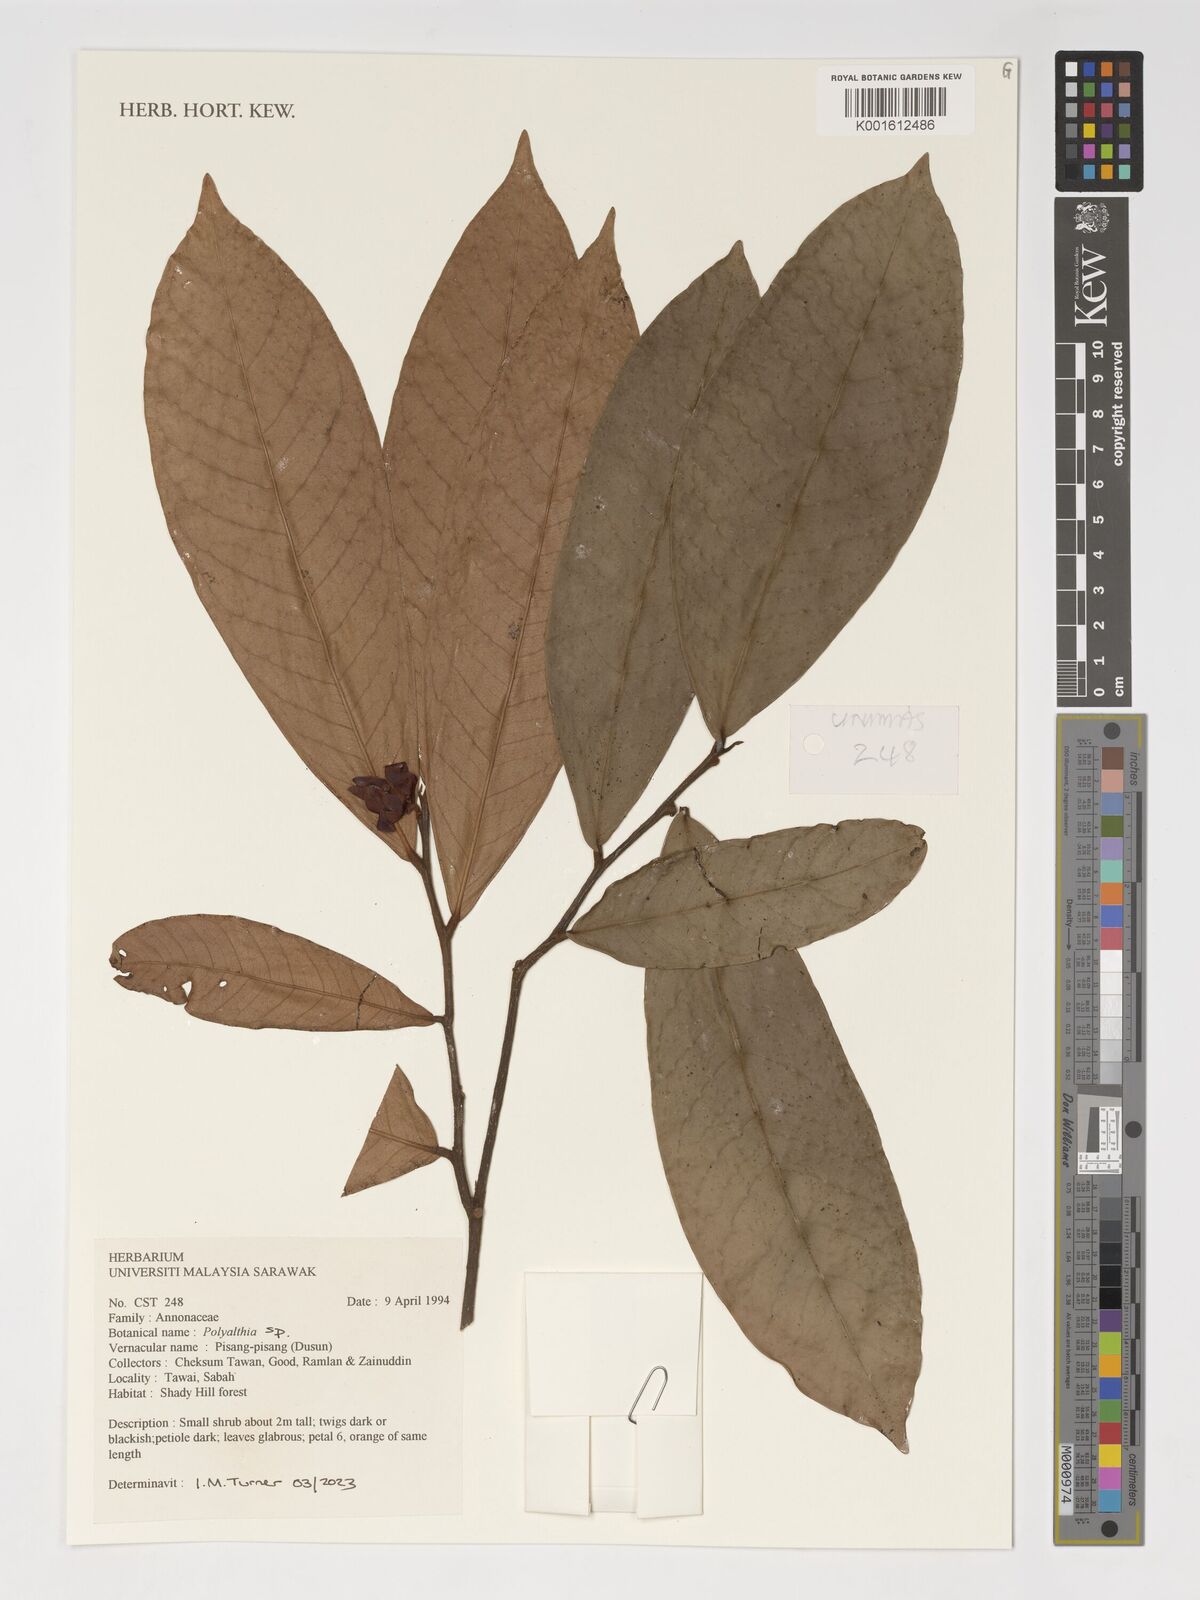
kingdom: Plantae
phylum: Tracheophyta
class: Magnoliopsida
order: Magnoliales
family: Annonaceae
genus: Polyalthia
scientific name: Polyalthia
